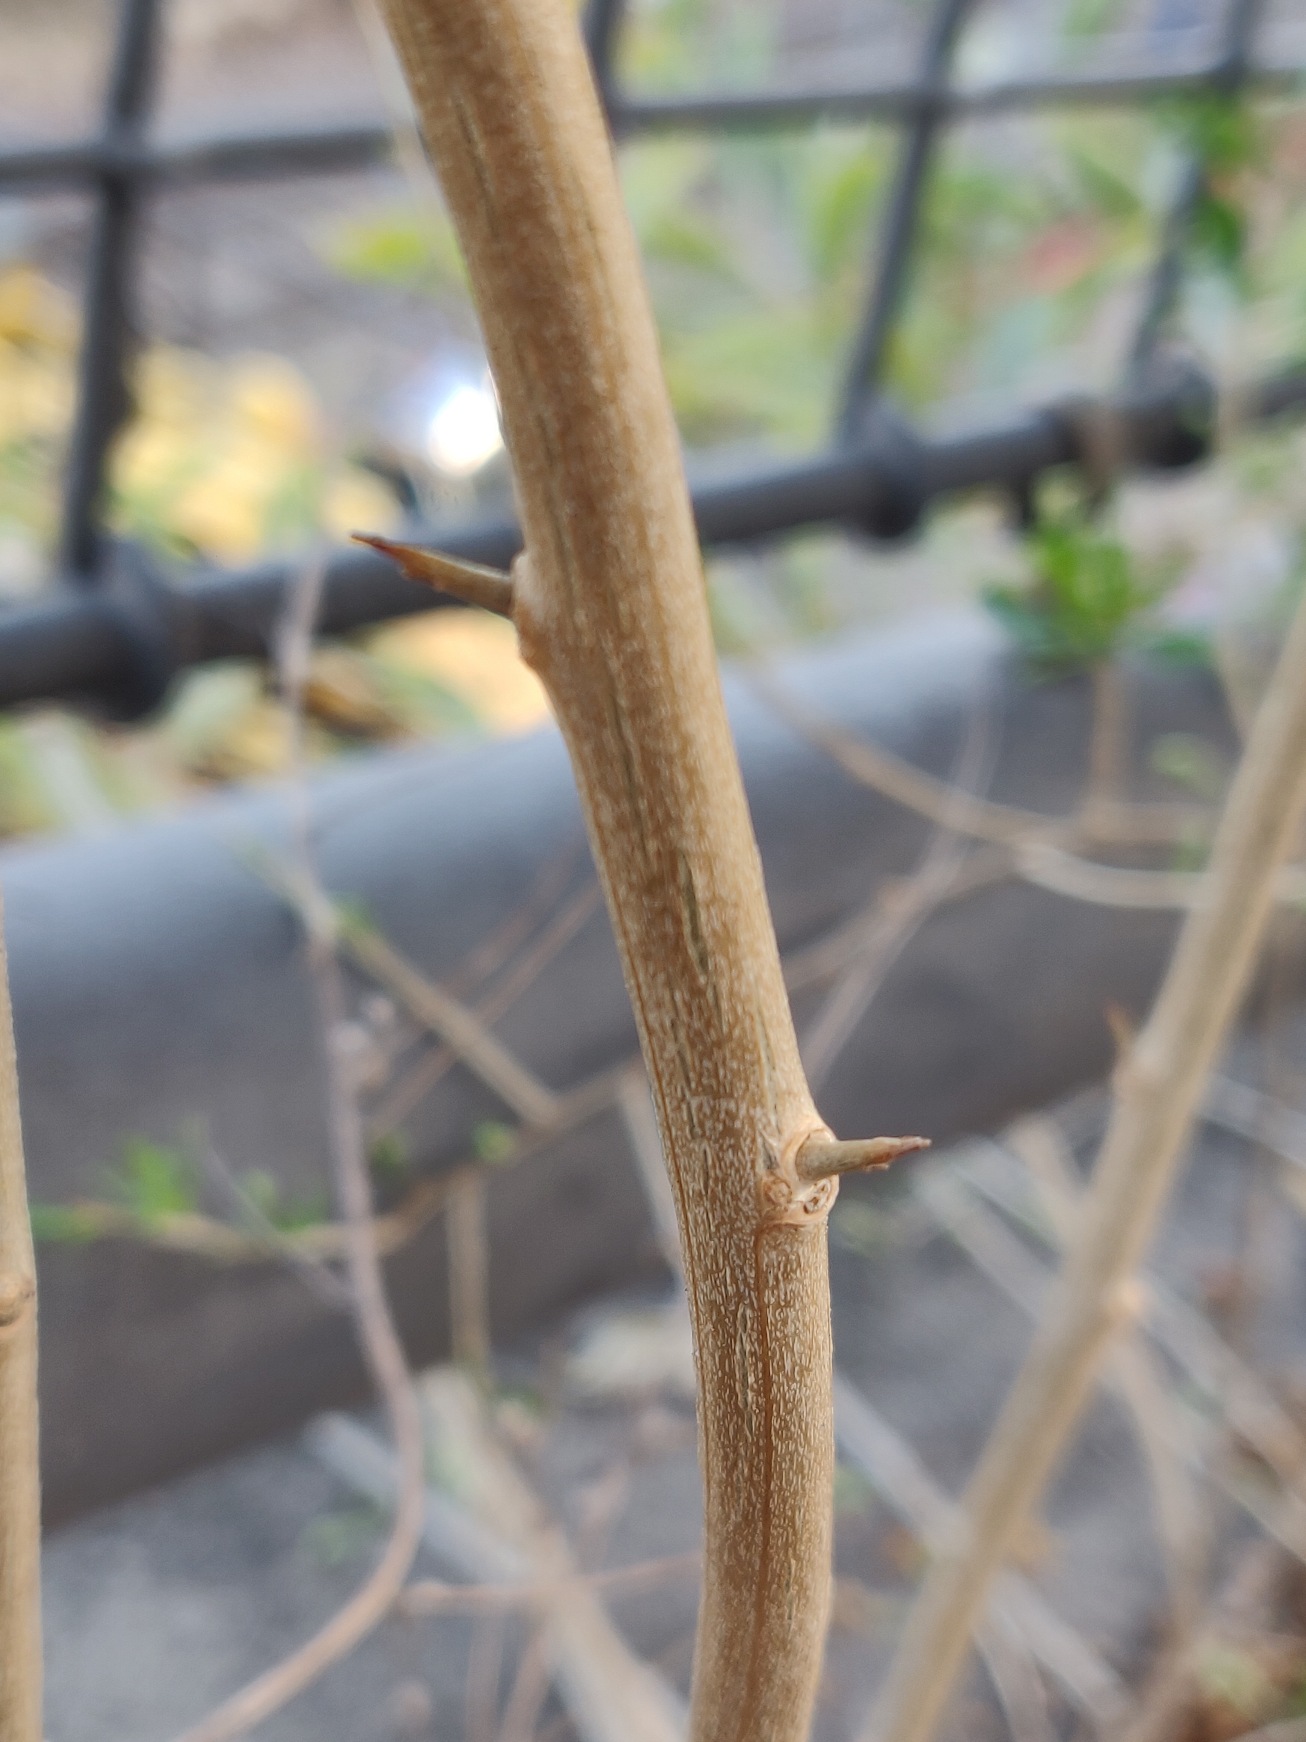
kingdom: Plantae
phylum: Tracheophyta
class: Magnoliopsida
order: Solanales
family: Solanaceae
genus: Lycium
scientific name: Lycium barbarum
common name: Bukketorn
